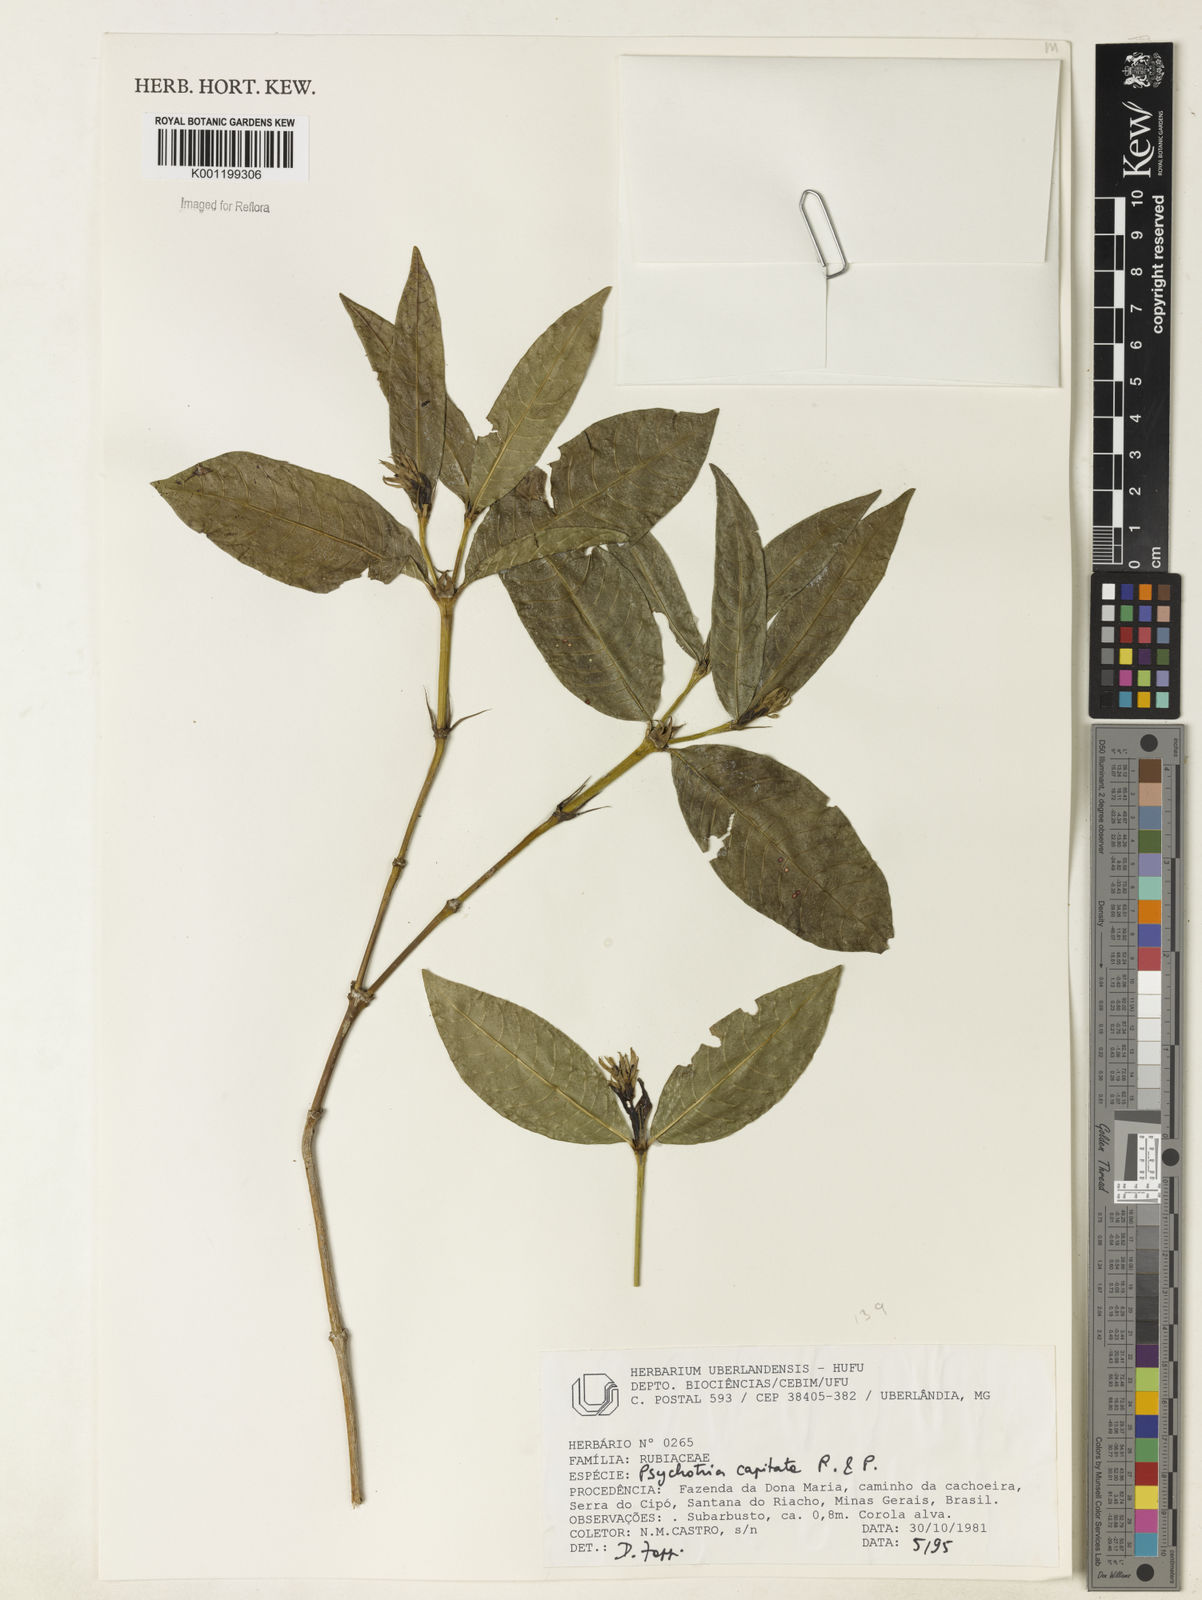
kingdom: Plantae
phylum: Tracheophyta
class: Magnoliopsida
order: Gentianales
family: Rubiaceae
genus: Palicourea
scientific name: Palicourea violacea
